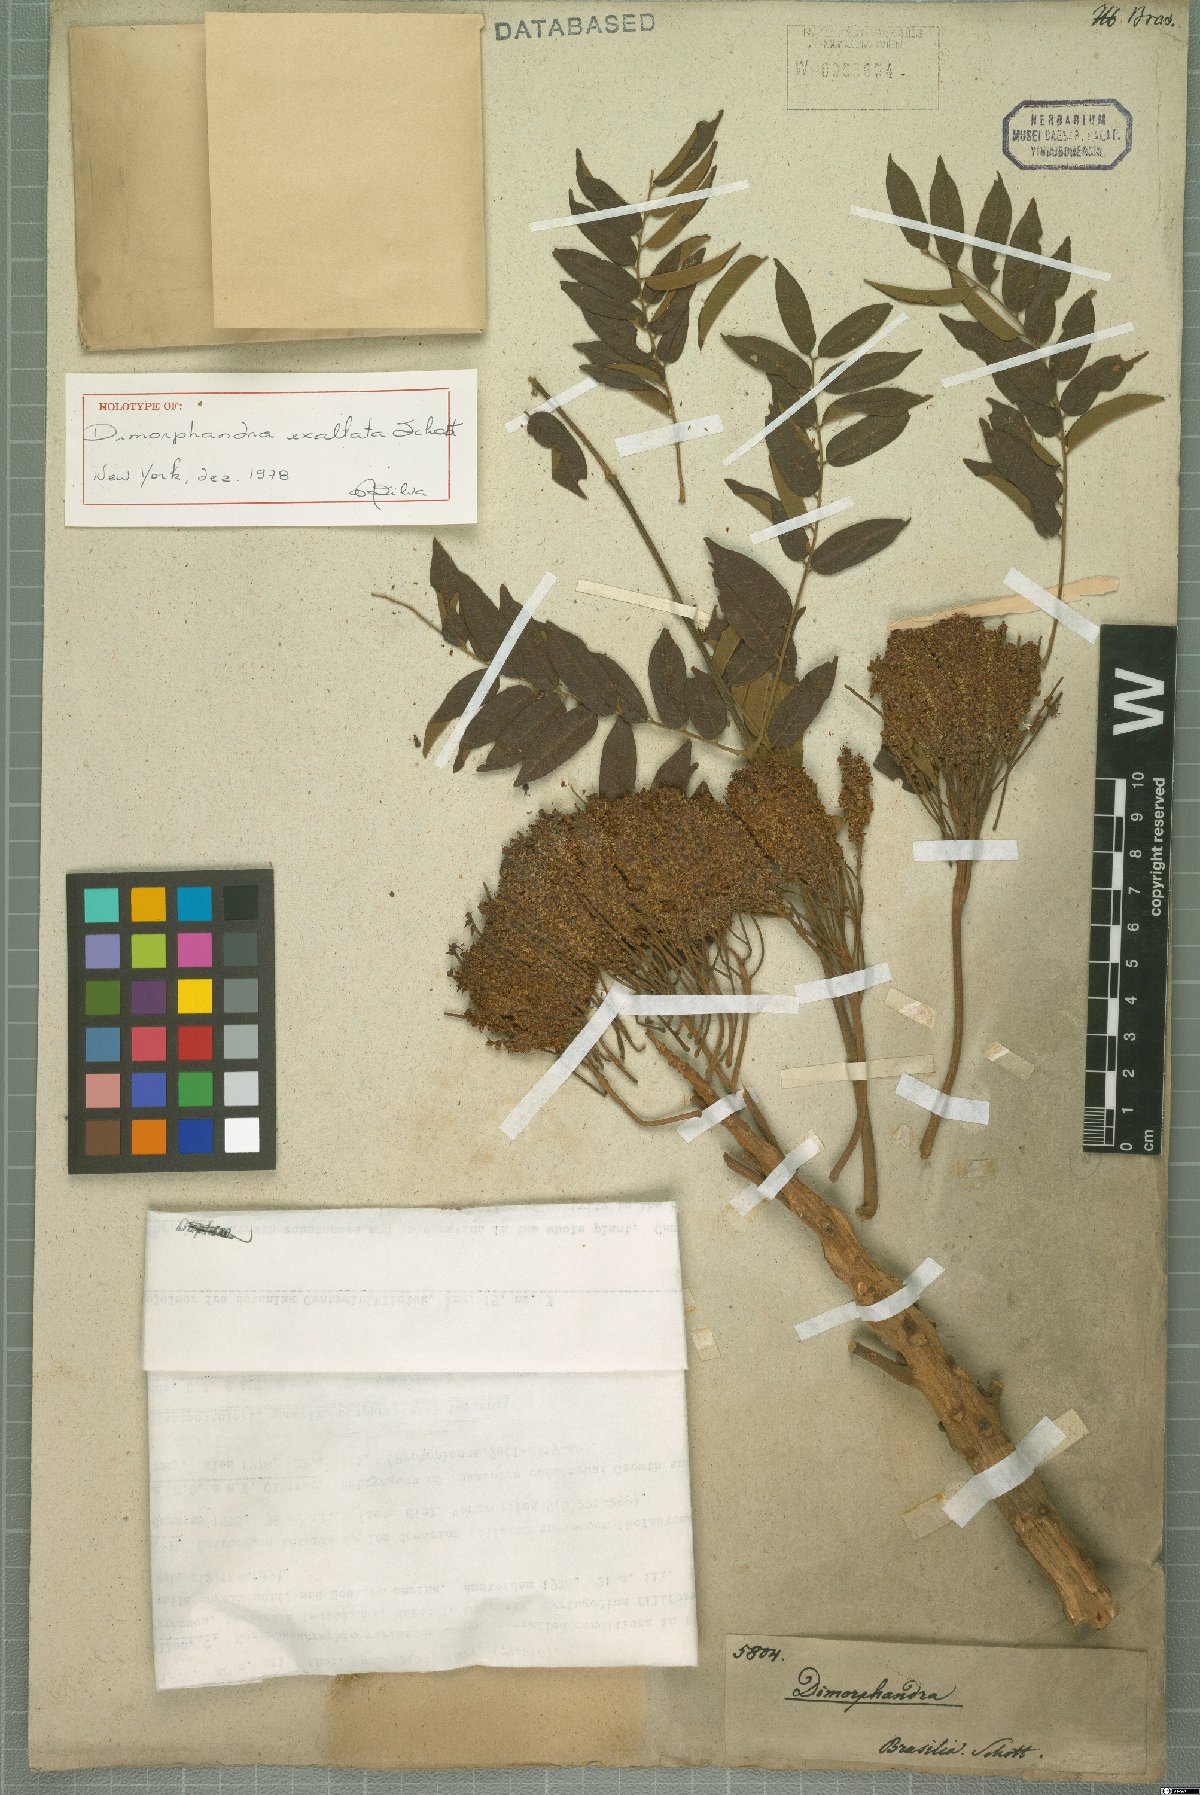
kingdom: Plantae
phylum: Tracheophyta
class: Magnoliopsida
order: Fabales
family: Fabaceae
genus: Dimorphandra
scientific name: Dimorphandra exaltata
